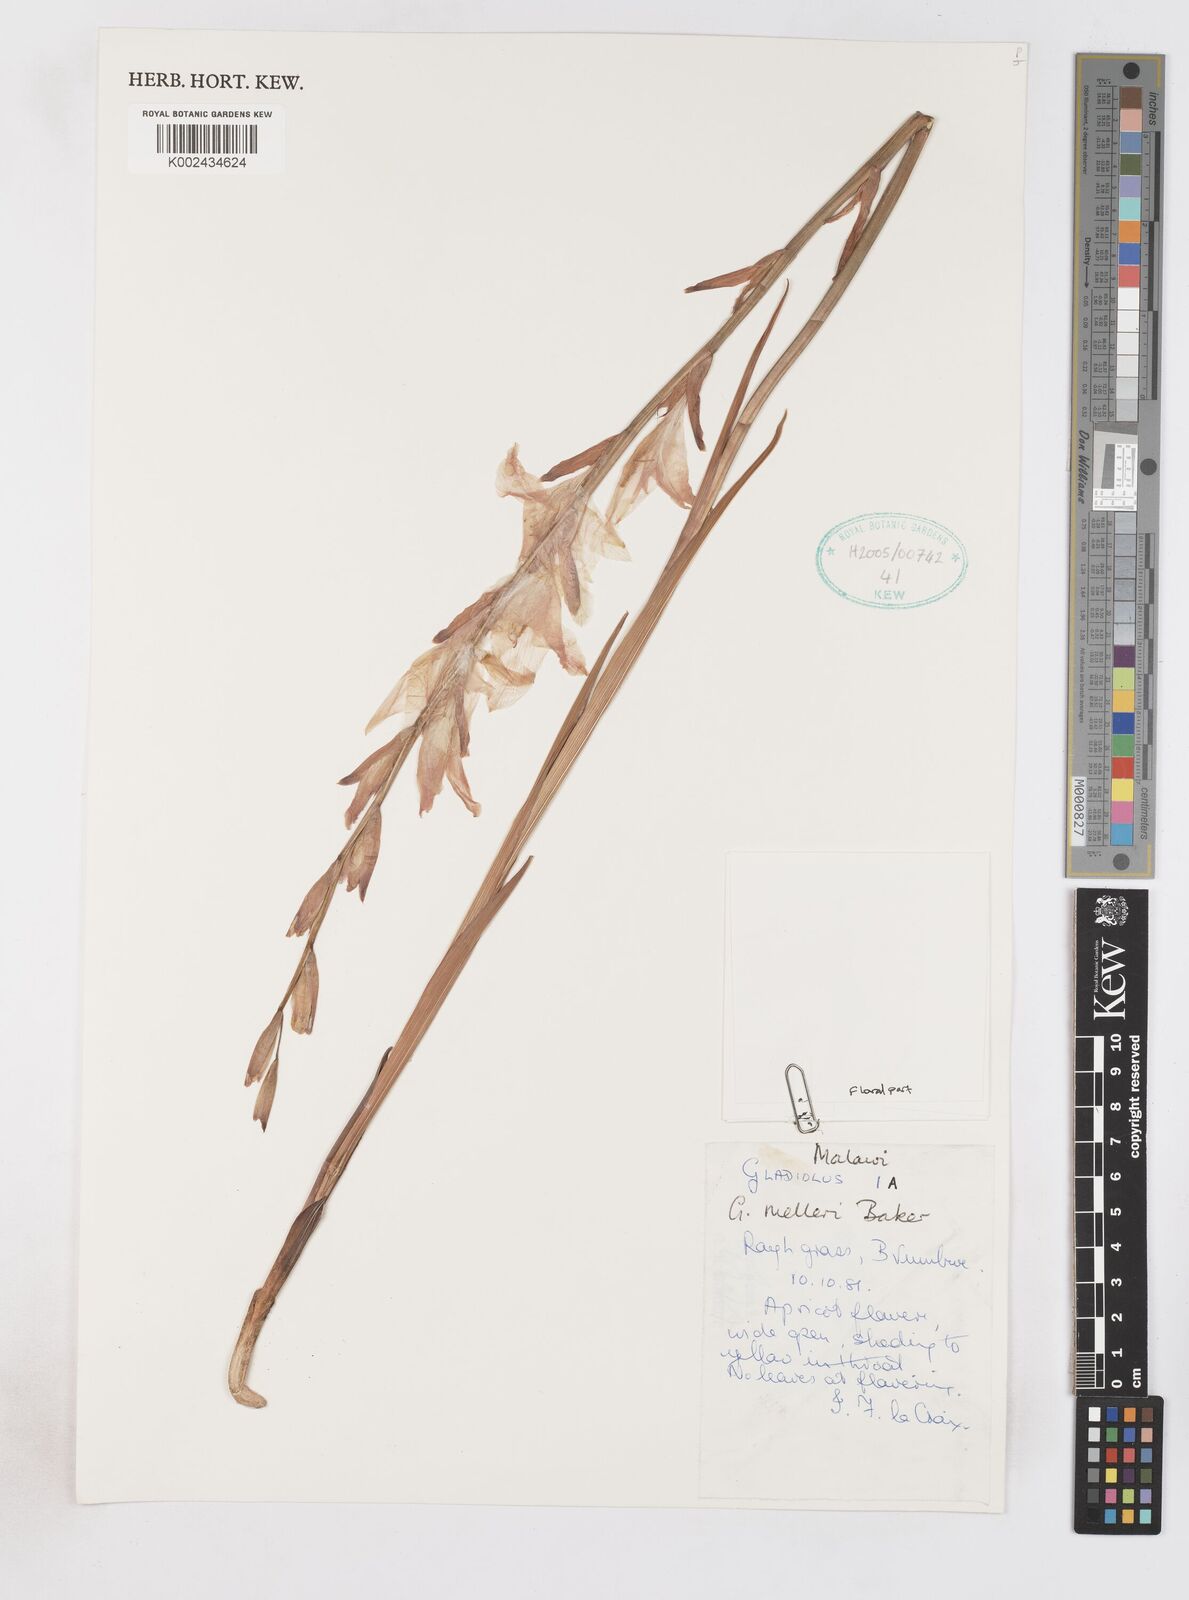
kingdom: Plantae
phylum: Tracheophyta
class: Liliopsida
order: Asparagales
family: Iridaceae
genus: Gladiolus
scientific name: Gladiolus melleri
